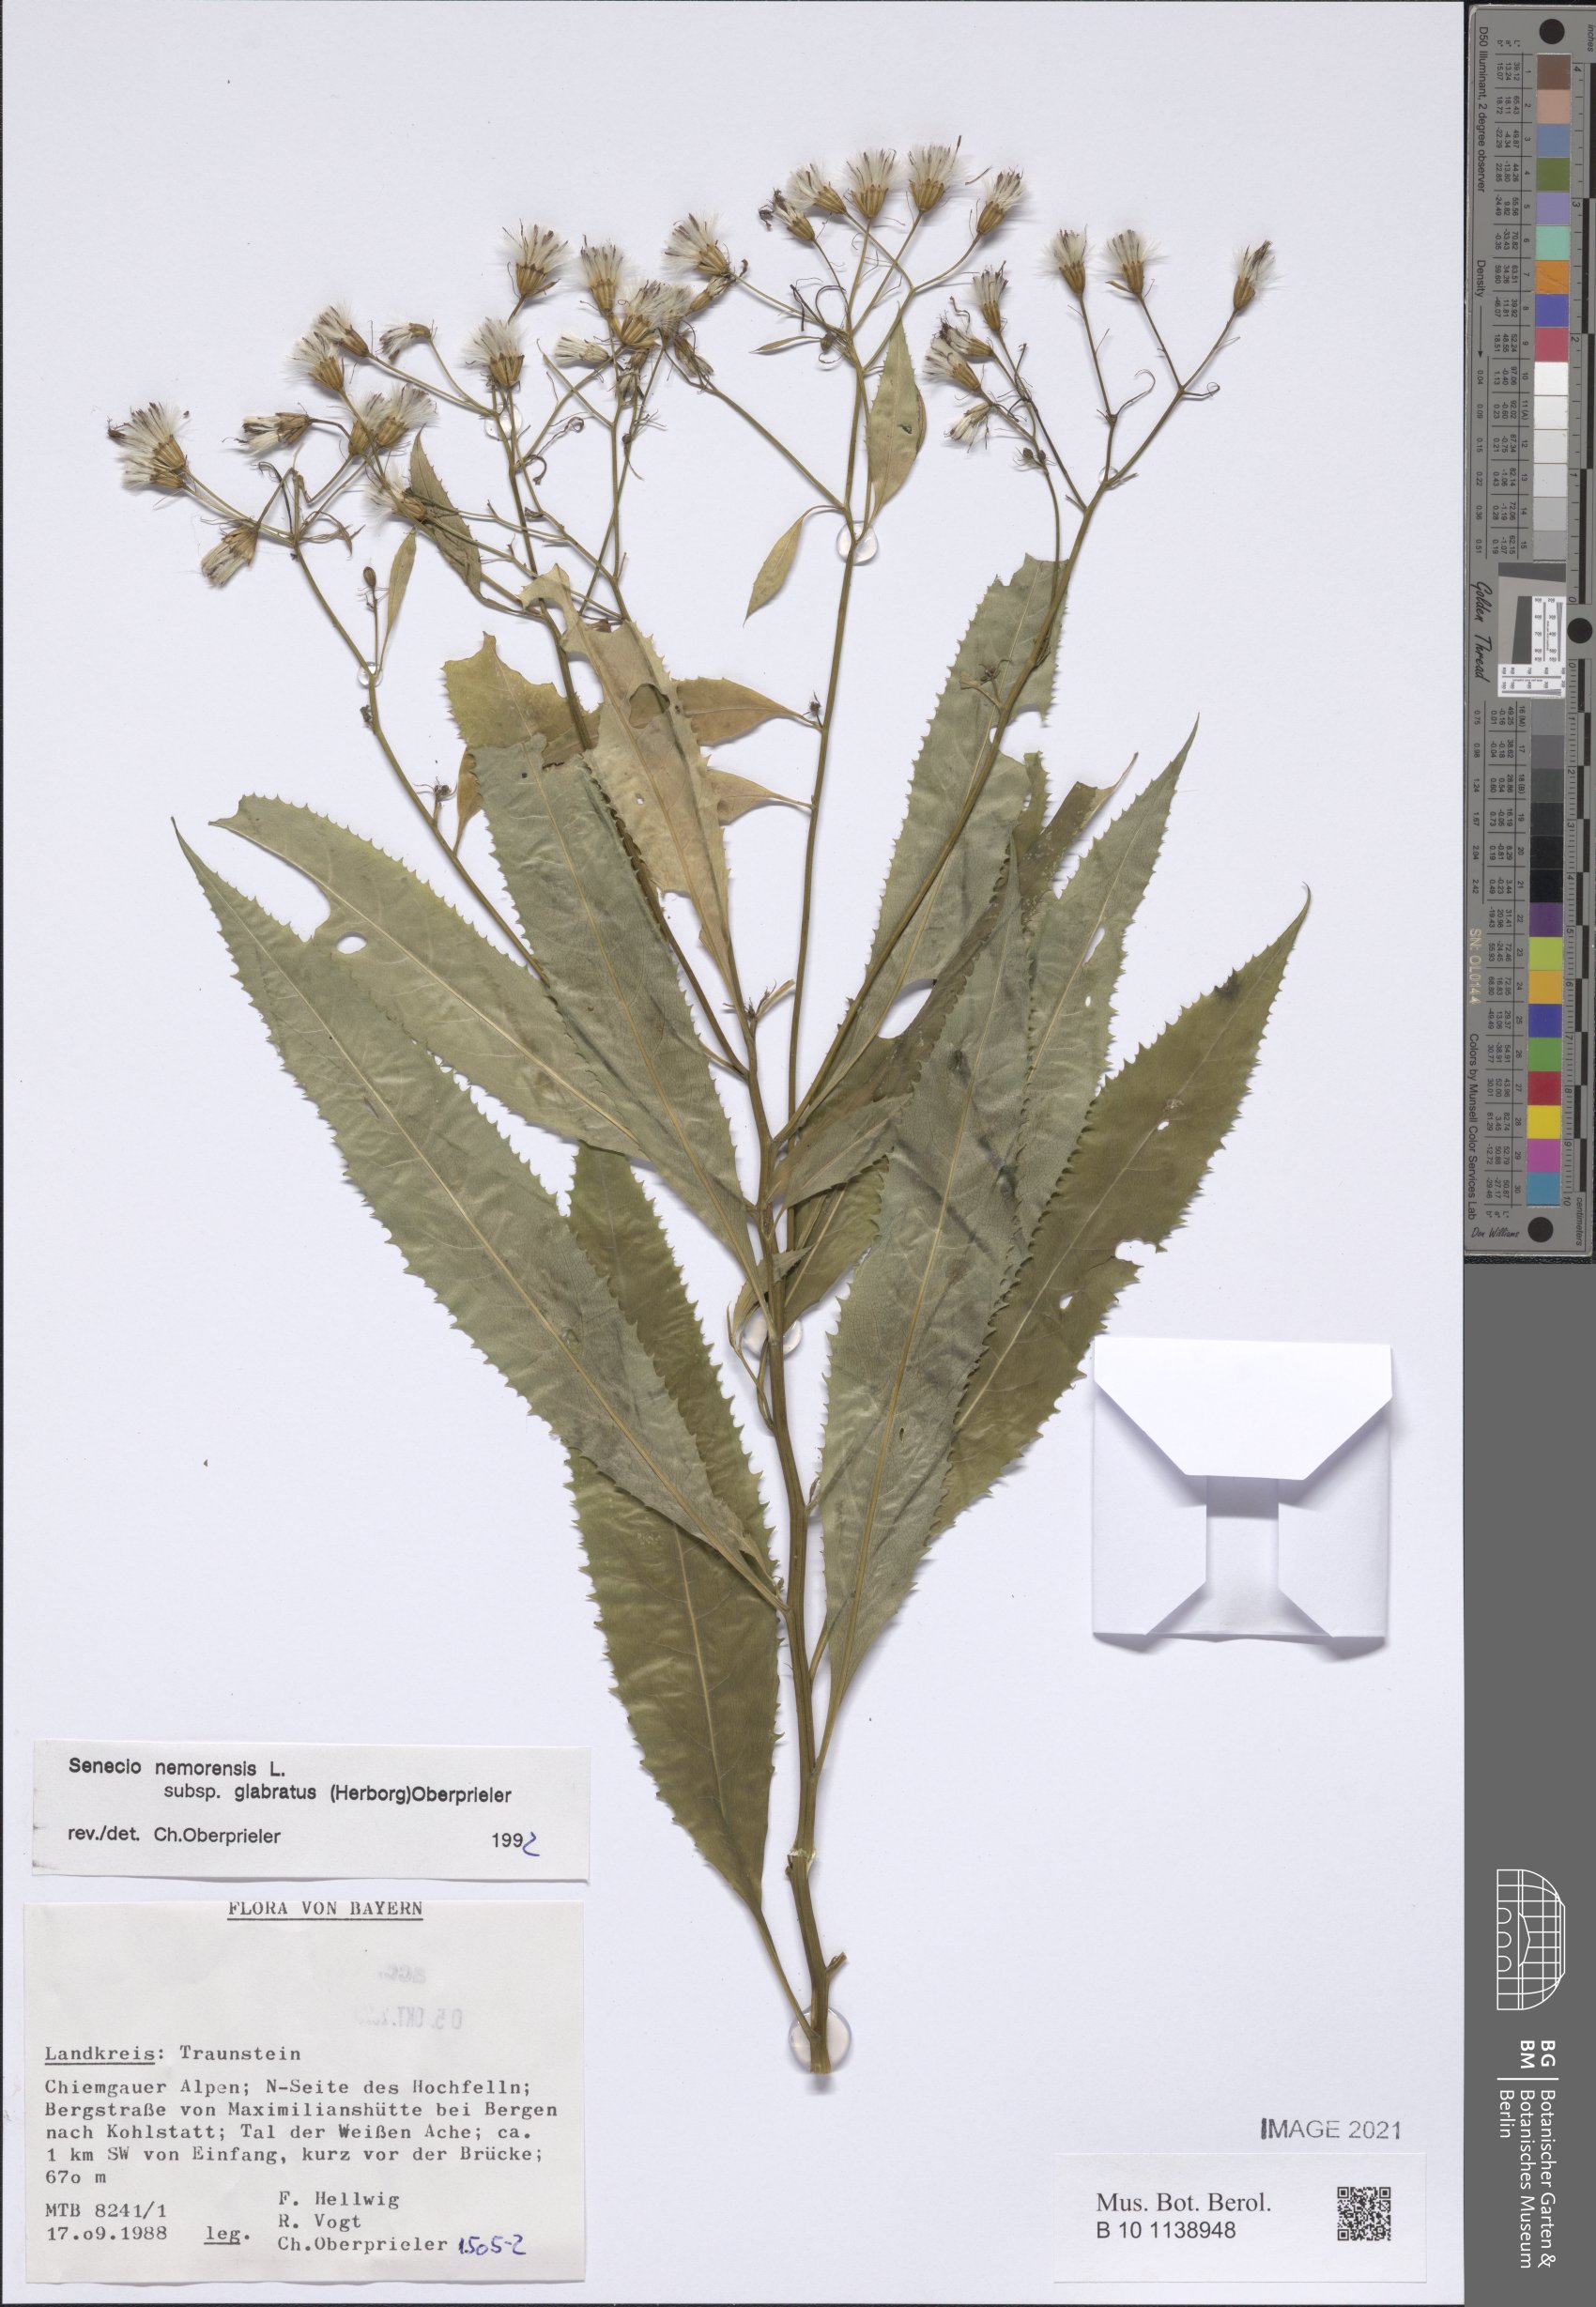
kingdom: Plantae
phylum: Tracheophyta
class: Magnoliopsida
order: Asterales
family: Asteraceae
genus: Senecio
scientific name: Senecio germanicus
